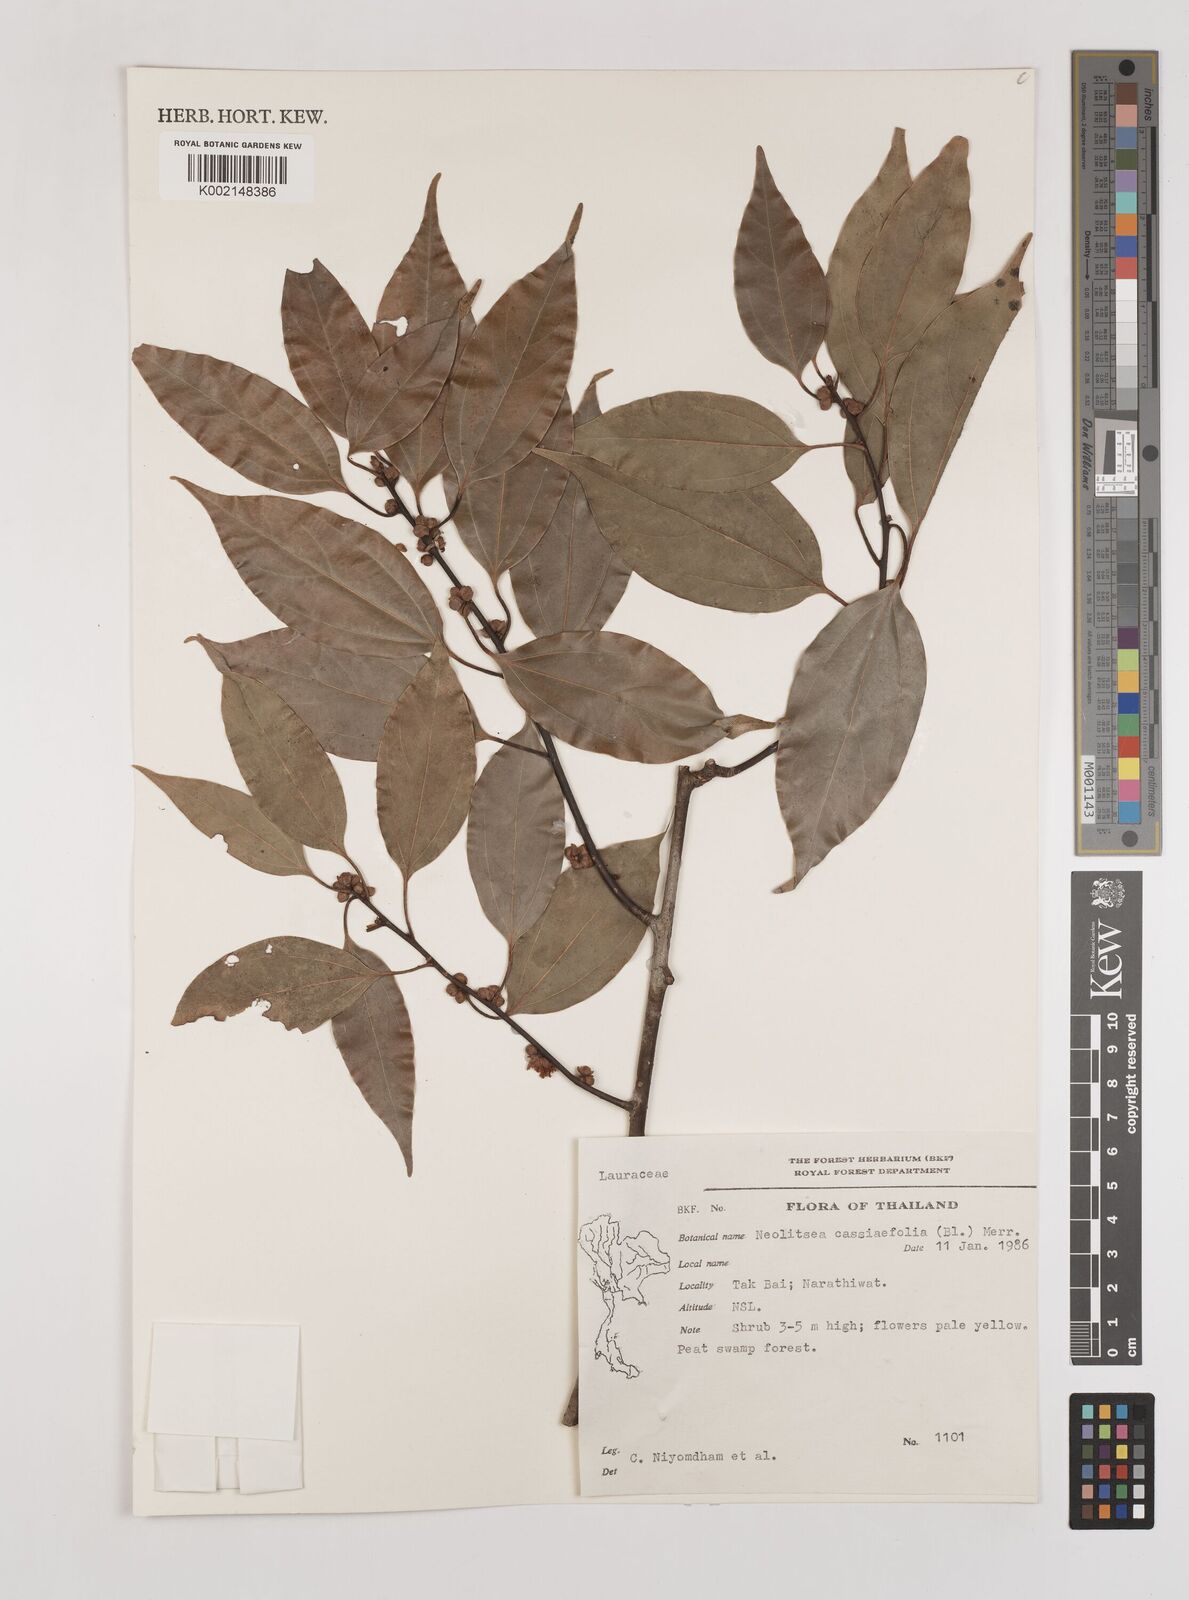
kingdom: Plantae
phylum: Tracheophyta
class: Magnoliopsida
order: Laurales
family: Lauraceae
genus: Neolitsea
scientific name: Neolitsea cassiifolia
